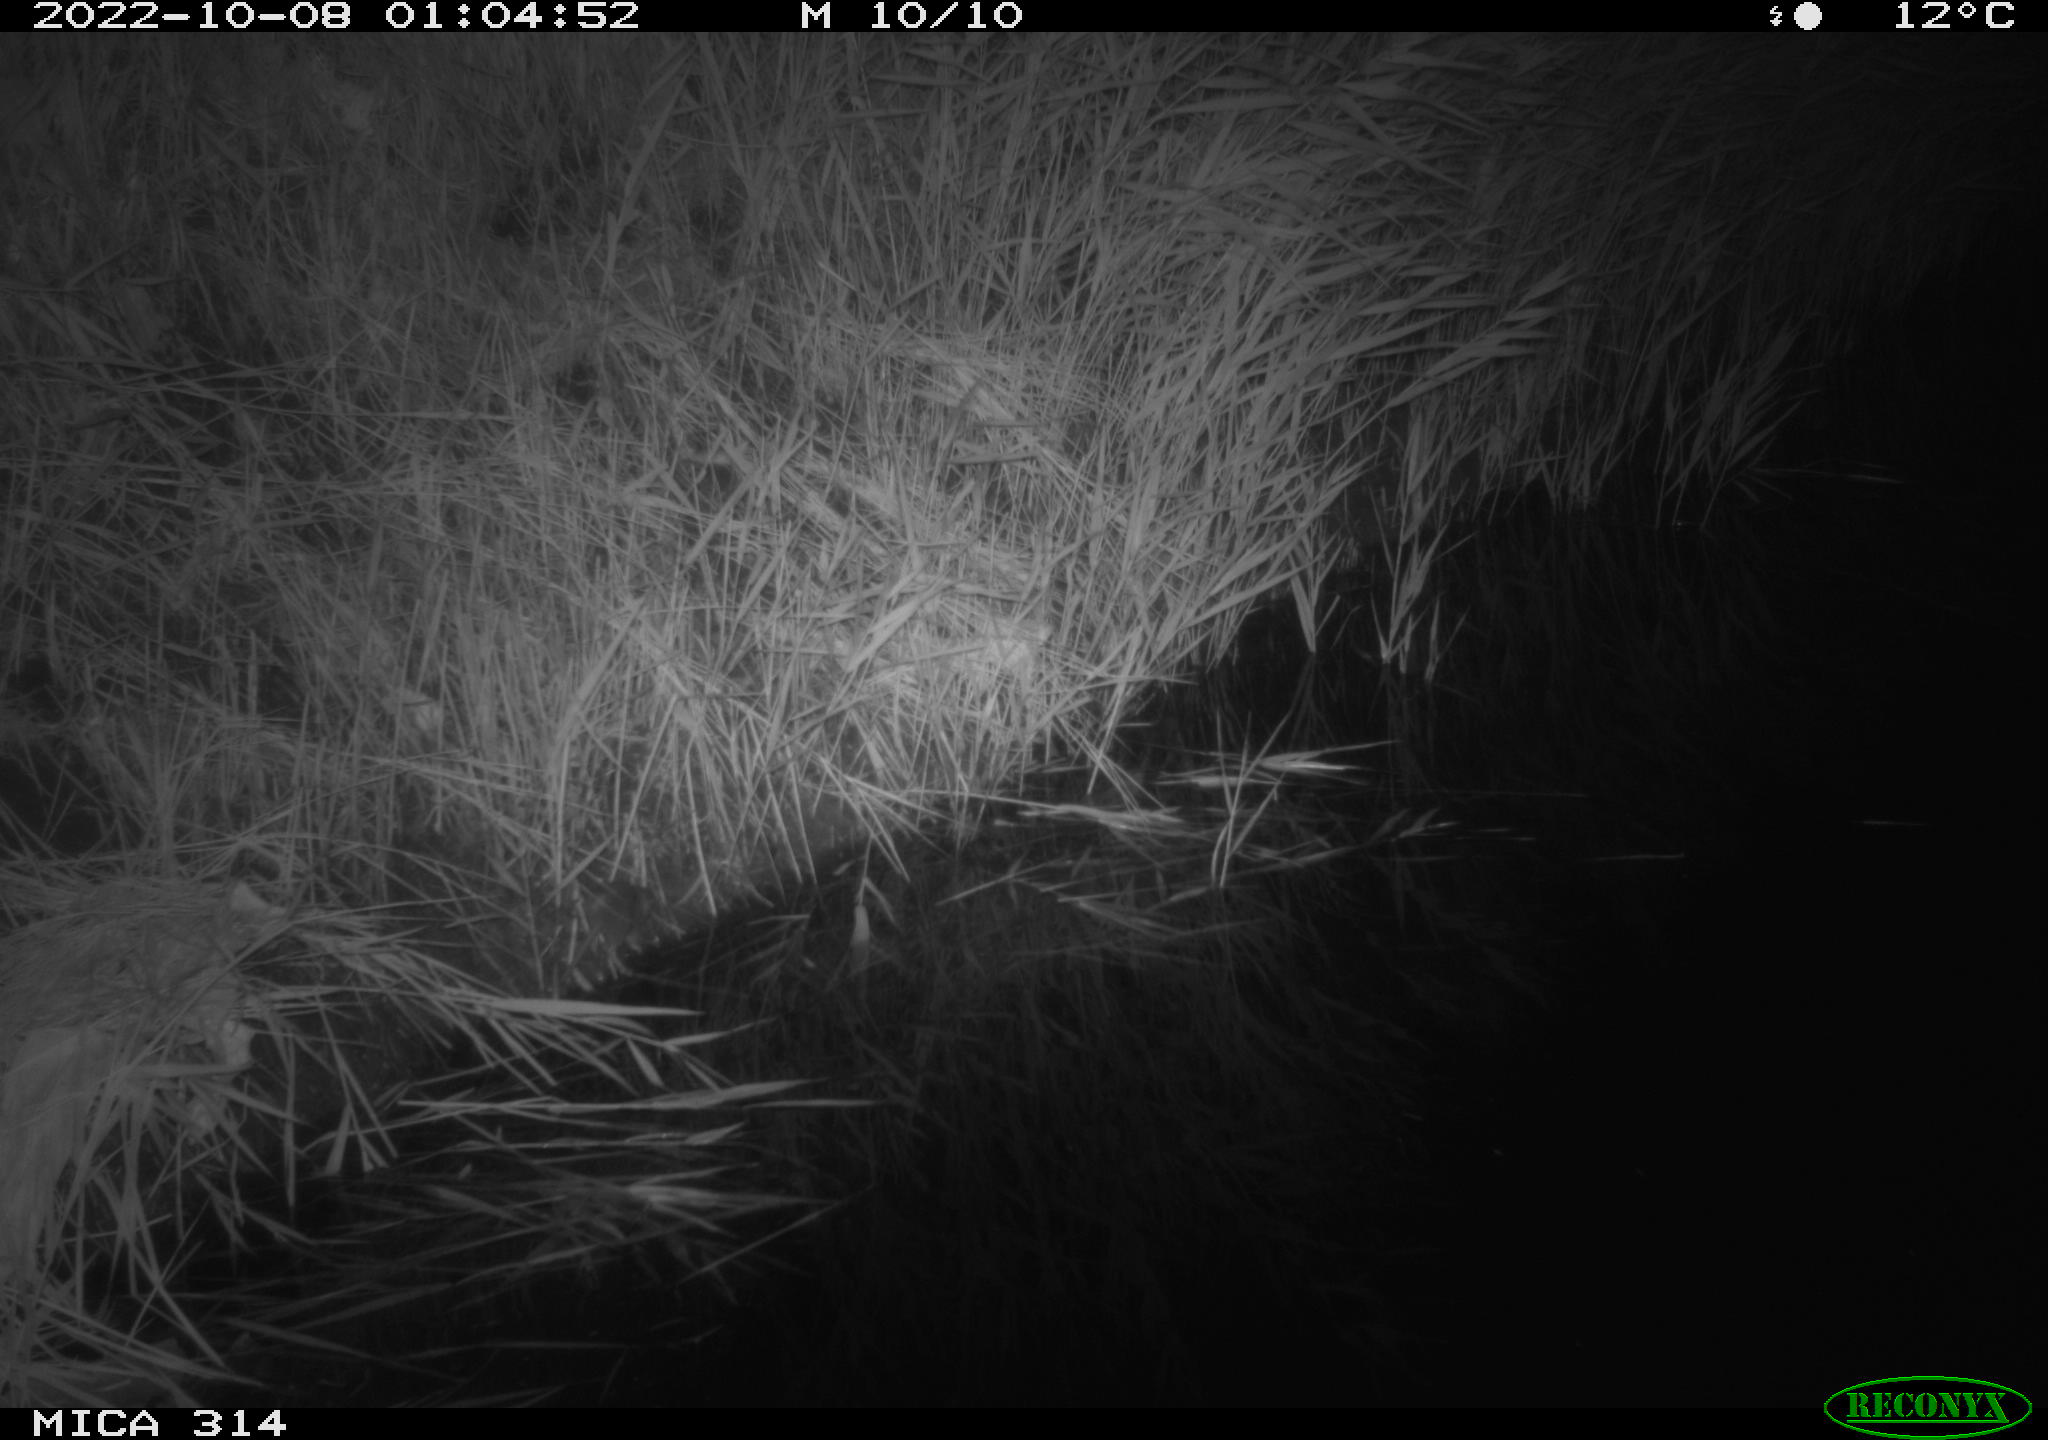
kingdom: Animalia
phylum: Chordata
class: Mammalia
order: Rodentia
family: Muridae
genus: Rattus
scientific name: Rattus norvegicus
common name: Brown rat
